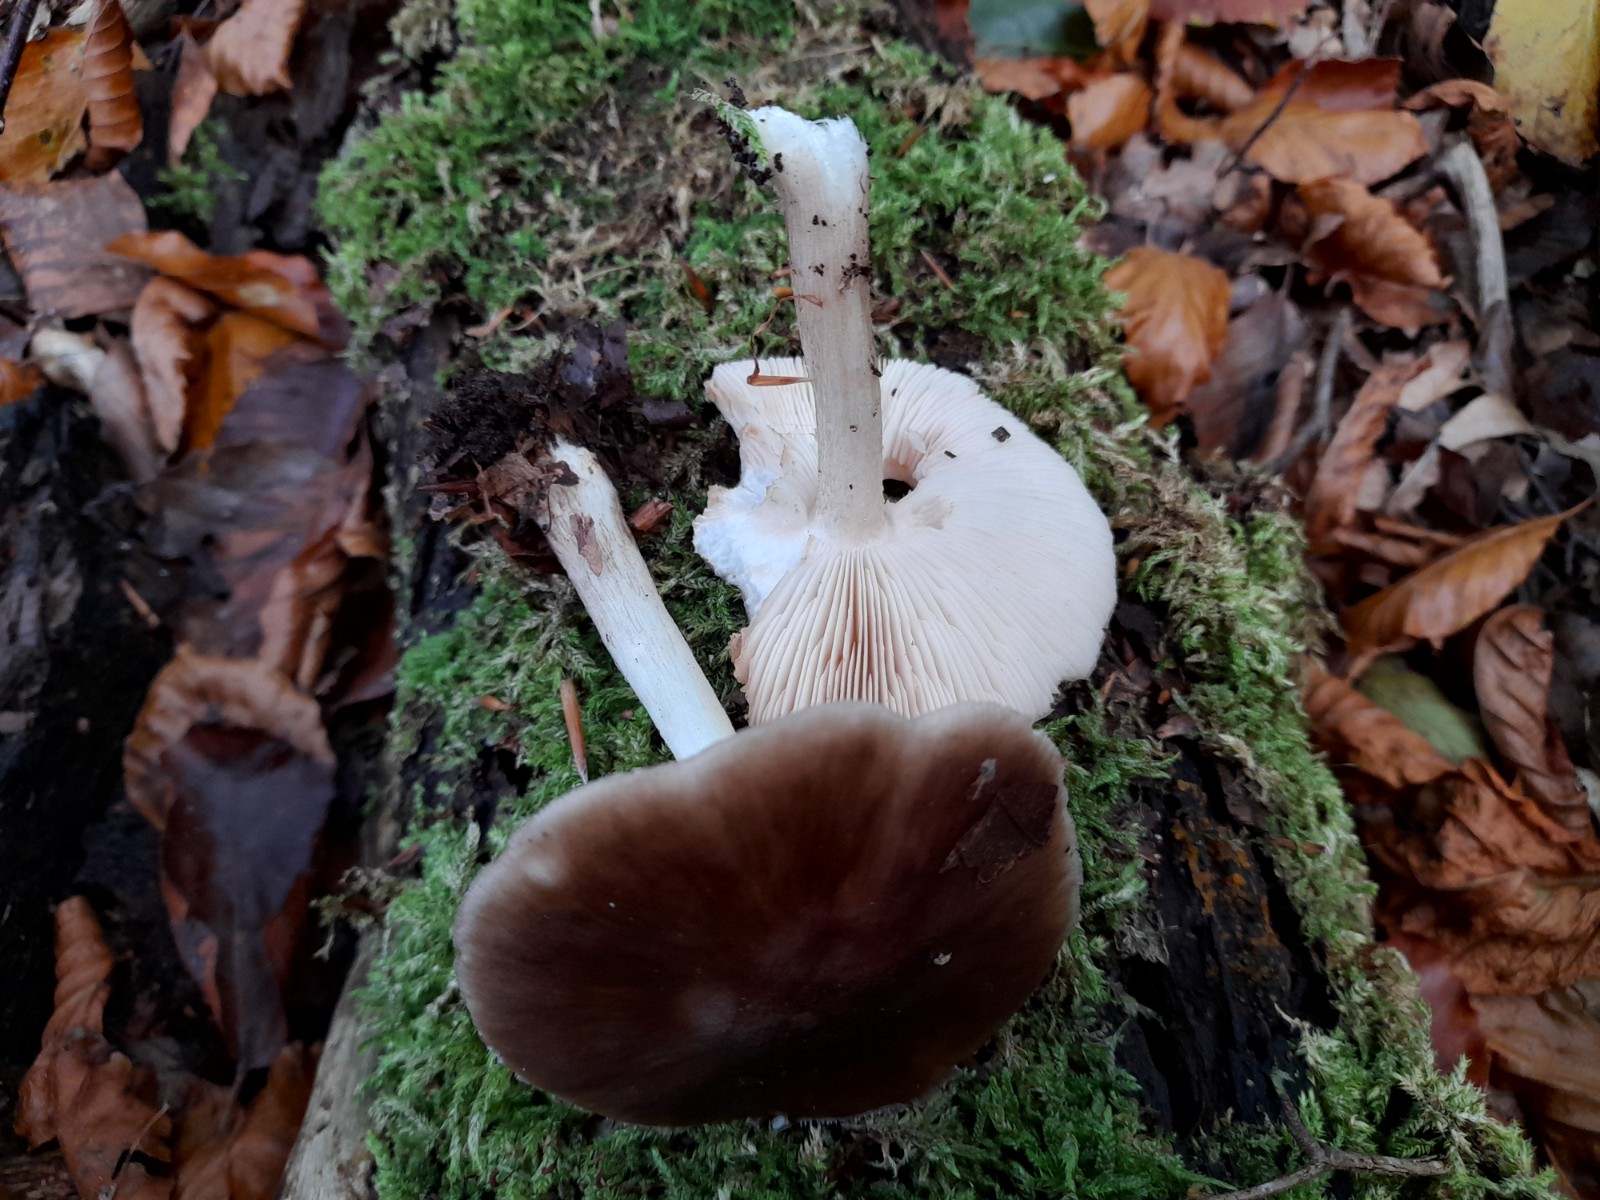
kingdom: Fungi
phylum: Basidiomycota
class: Agaricomycetes
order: Agaricales
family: Pluteaceae
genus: Pluteus
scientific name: Pluteus cervinus
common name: sodfarvet skærmhat
